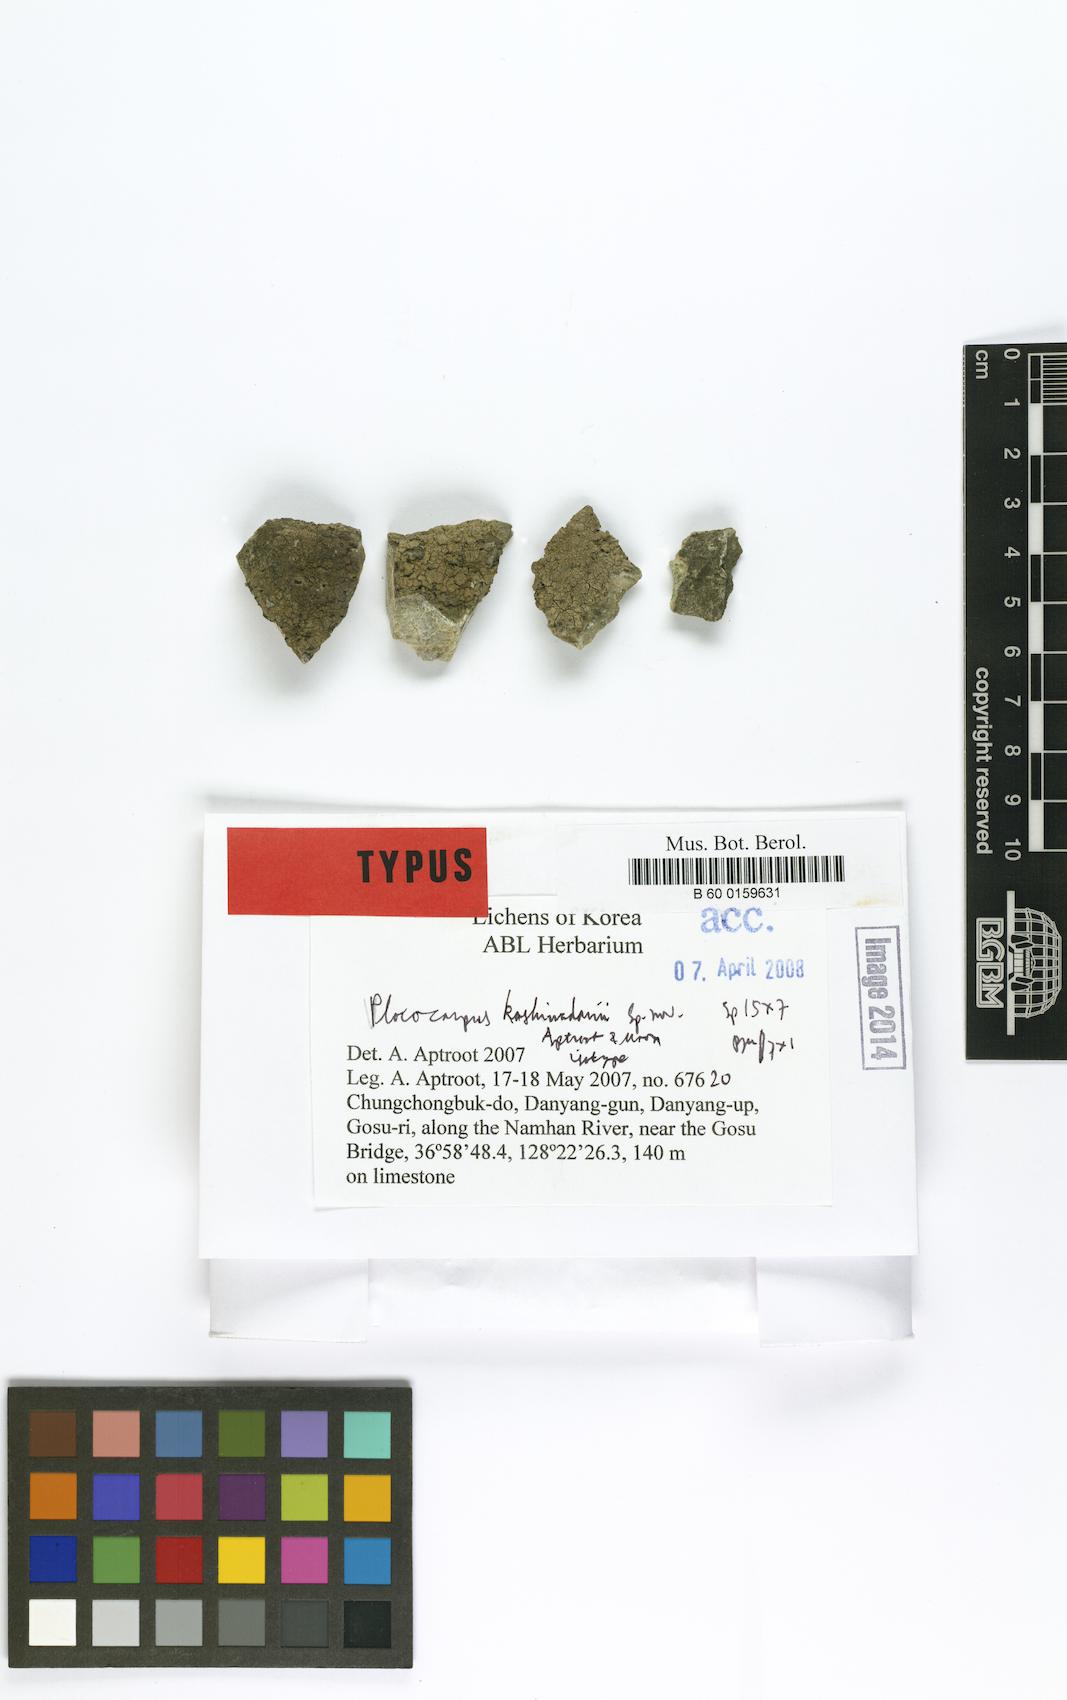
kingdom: Fungi
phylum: Ascomycota
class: Eurotiomycetes
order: Verrucariales
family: Verrucariaceae
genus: Placocarpus
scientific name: Placocarpus kashiwadanii
